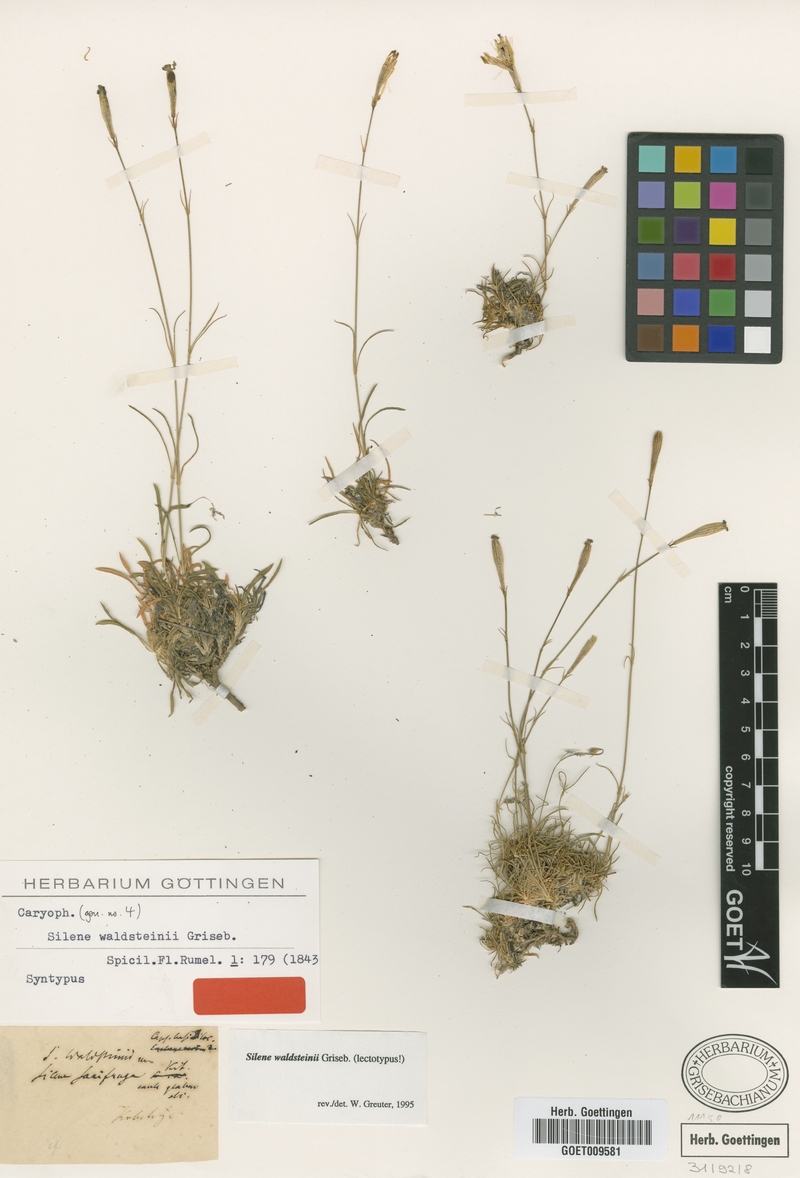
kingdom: Plantae
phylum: Tracheophyta
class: Magnoliopsida
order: Caryophyllales
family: Caryophyllaceae
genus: Silene
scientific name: Silene waldsteinii
